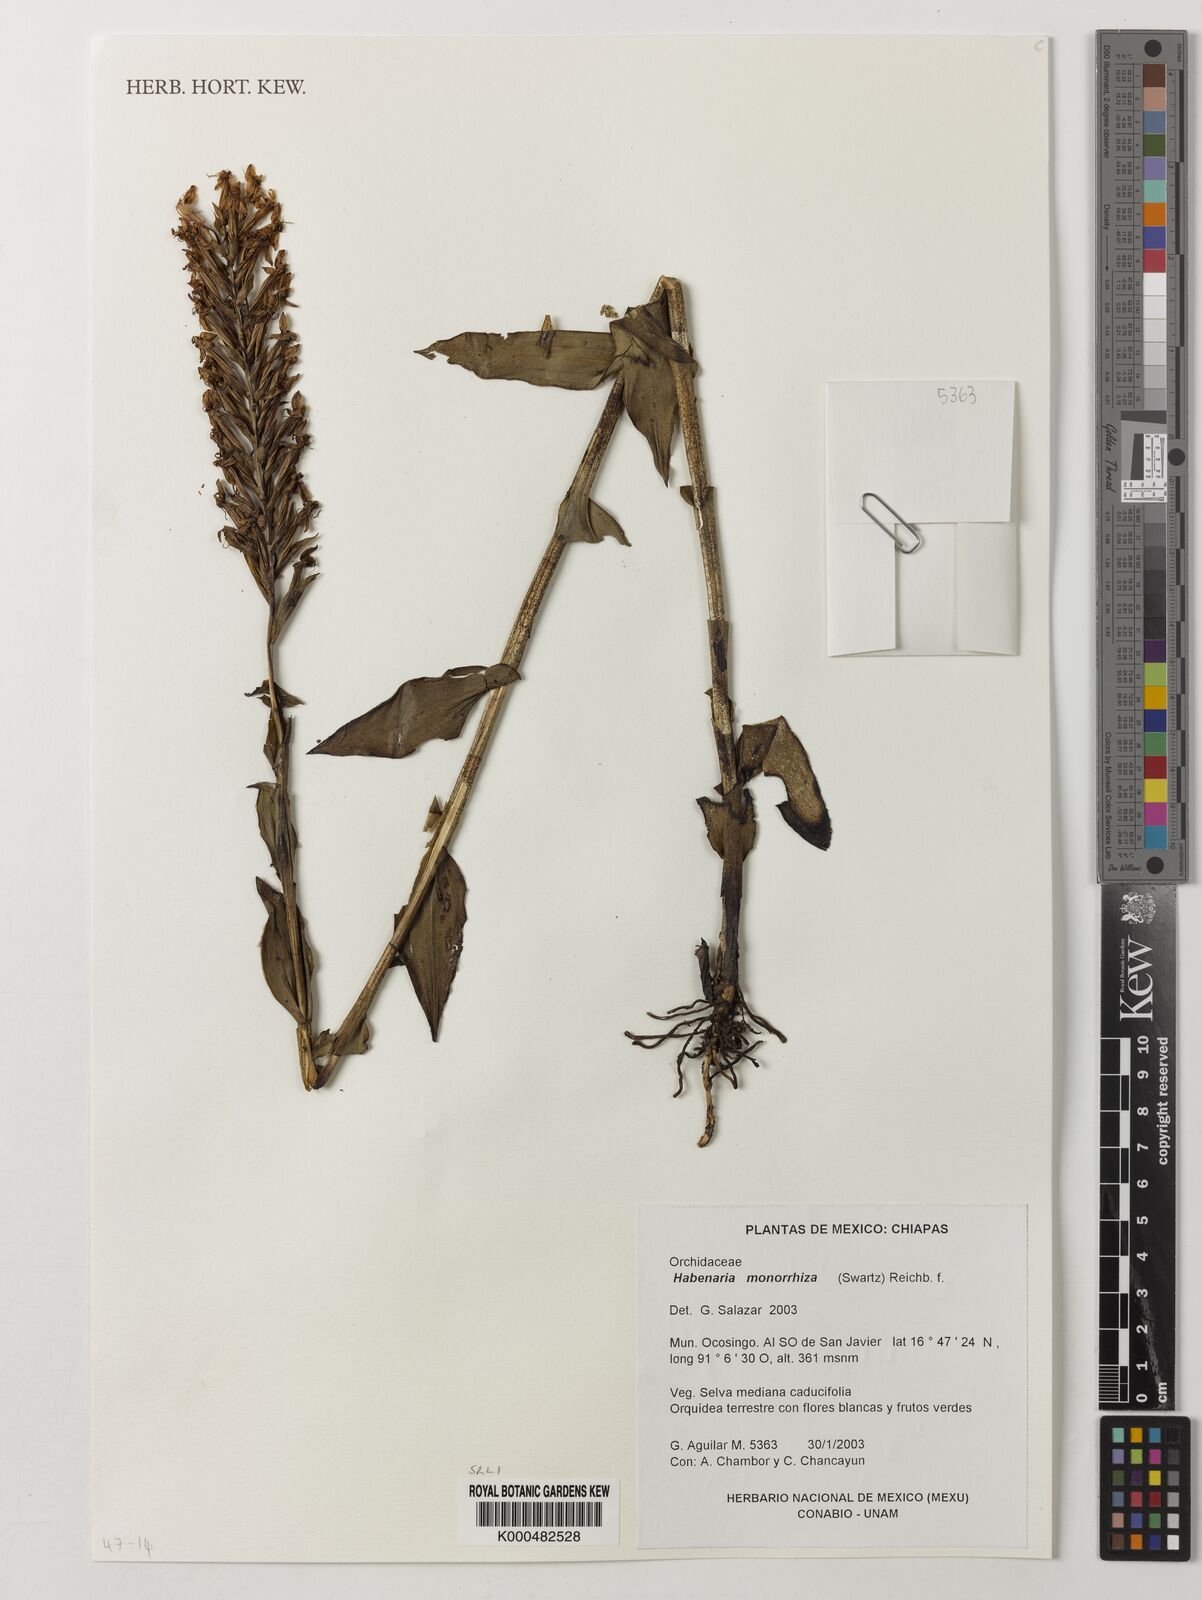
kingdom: Plantae
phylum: Tracheophyta
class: Liliopsida
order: Asparagales
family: Orchidaceae
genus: Habenaria
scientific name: Habenaria monorrhiza
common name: Tropical bog orchid
